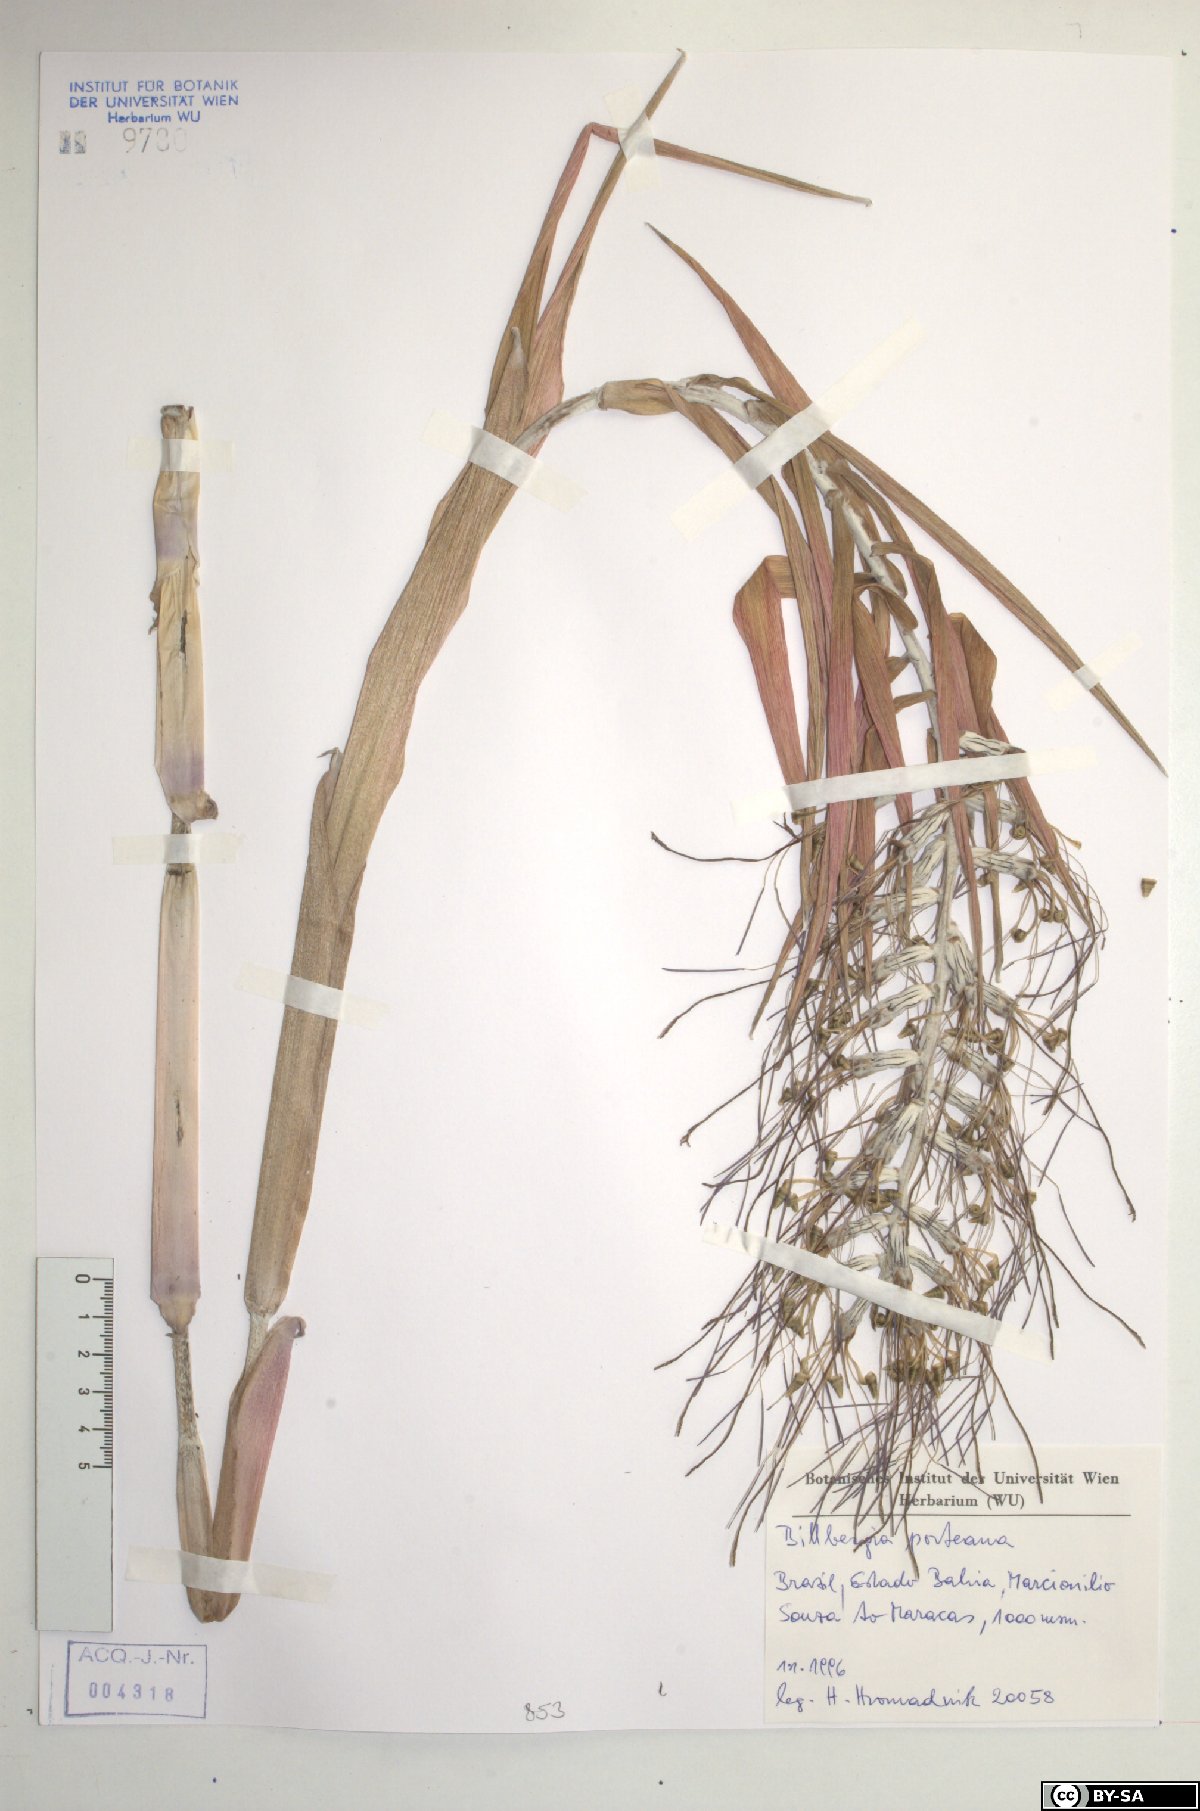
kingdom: Plantae
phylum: Tracheophyta
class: Liliopsida
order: Poales
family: Bromeliaceae
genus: Billbergia
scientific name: Billbergia porteana
